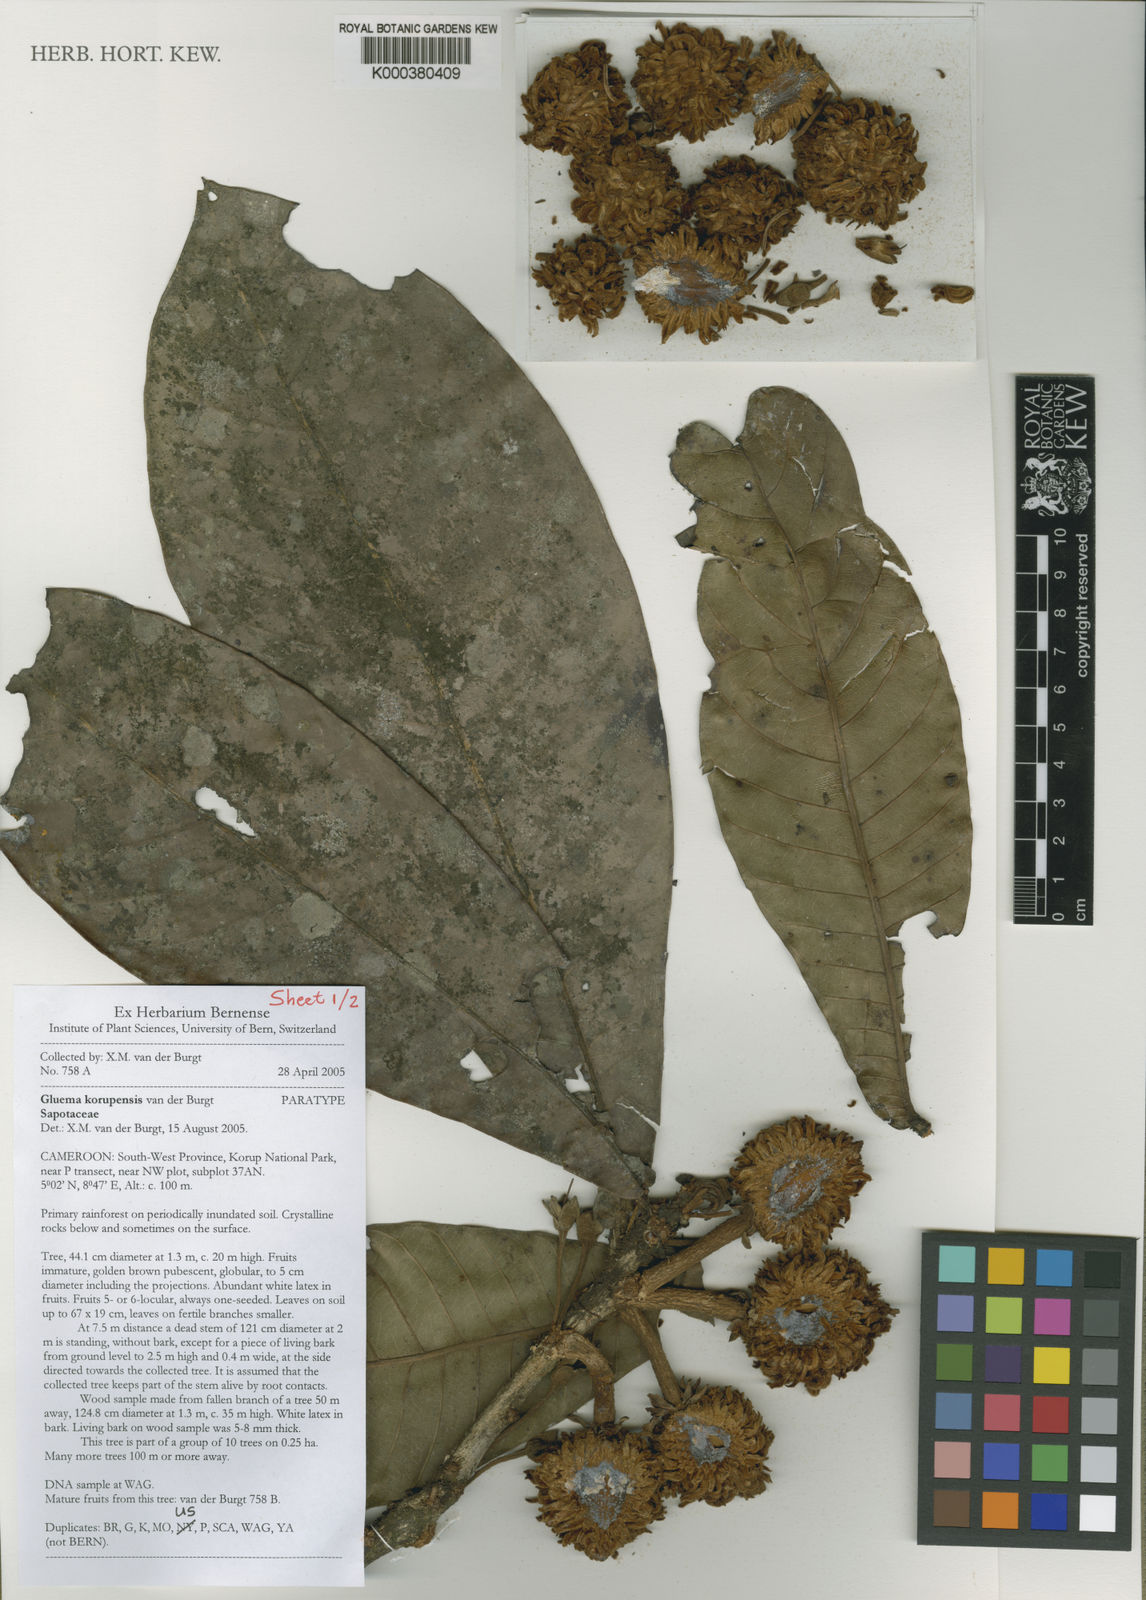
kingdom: Plantae
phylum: Tracheophyta
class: Magnoliopsida
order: Ericales
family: Sapotaceae
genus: Gluema
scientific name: Gluema korupensis
